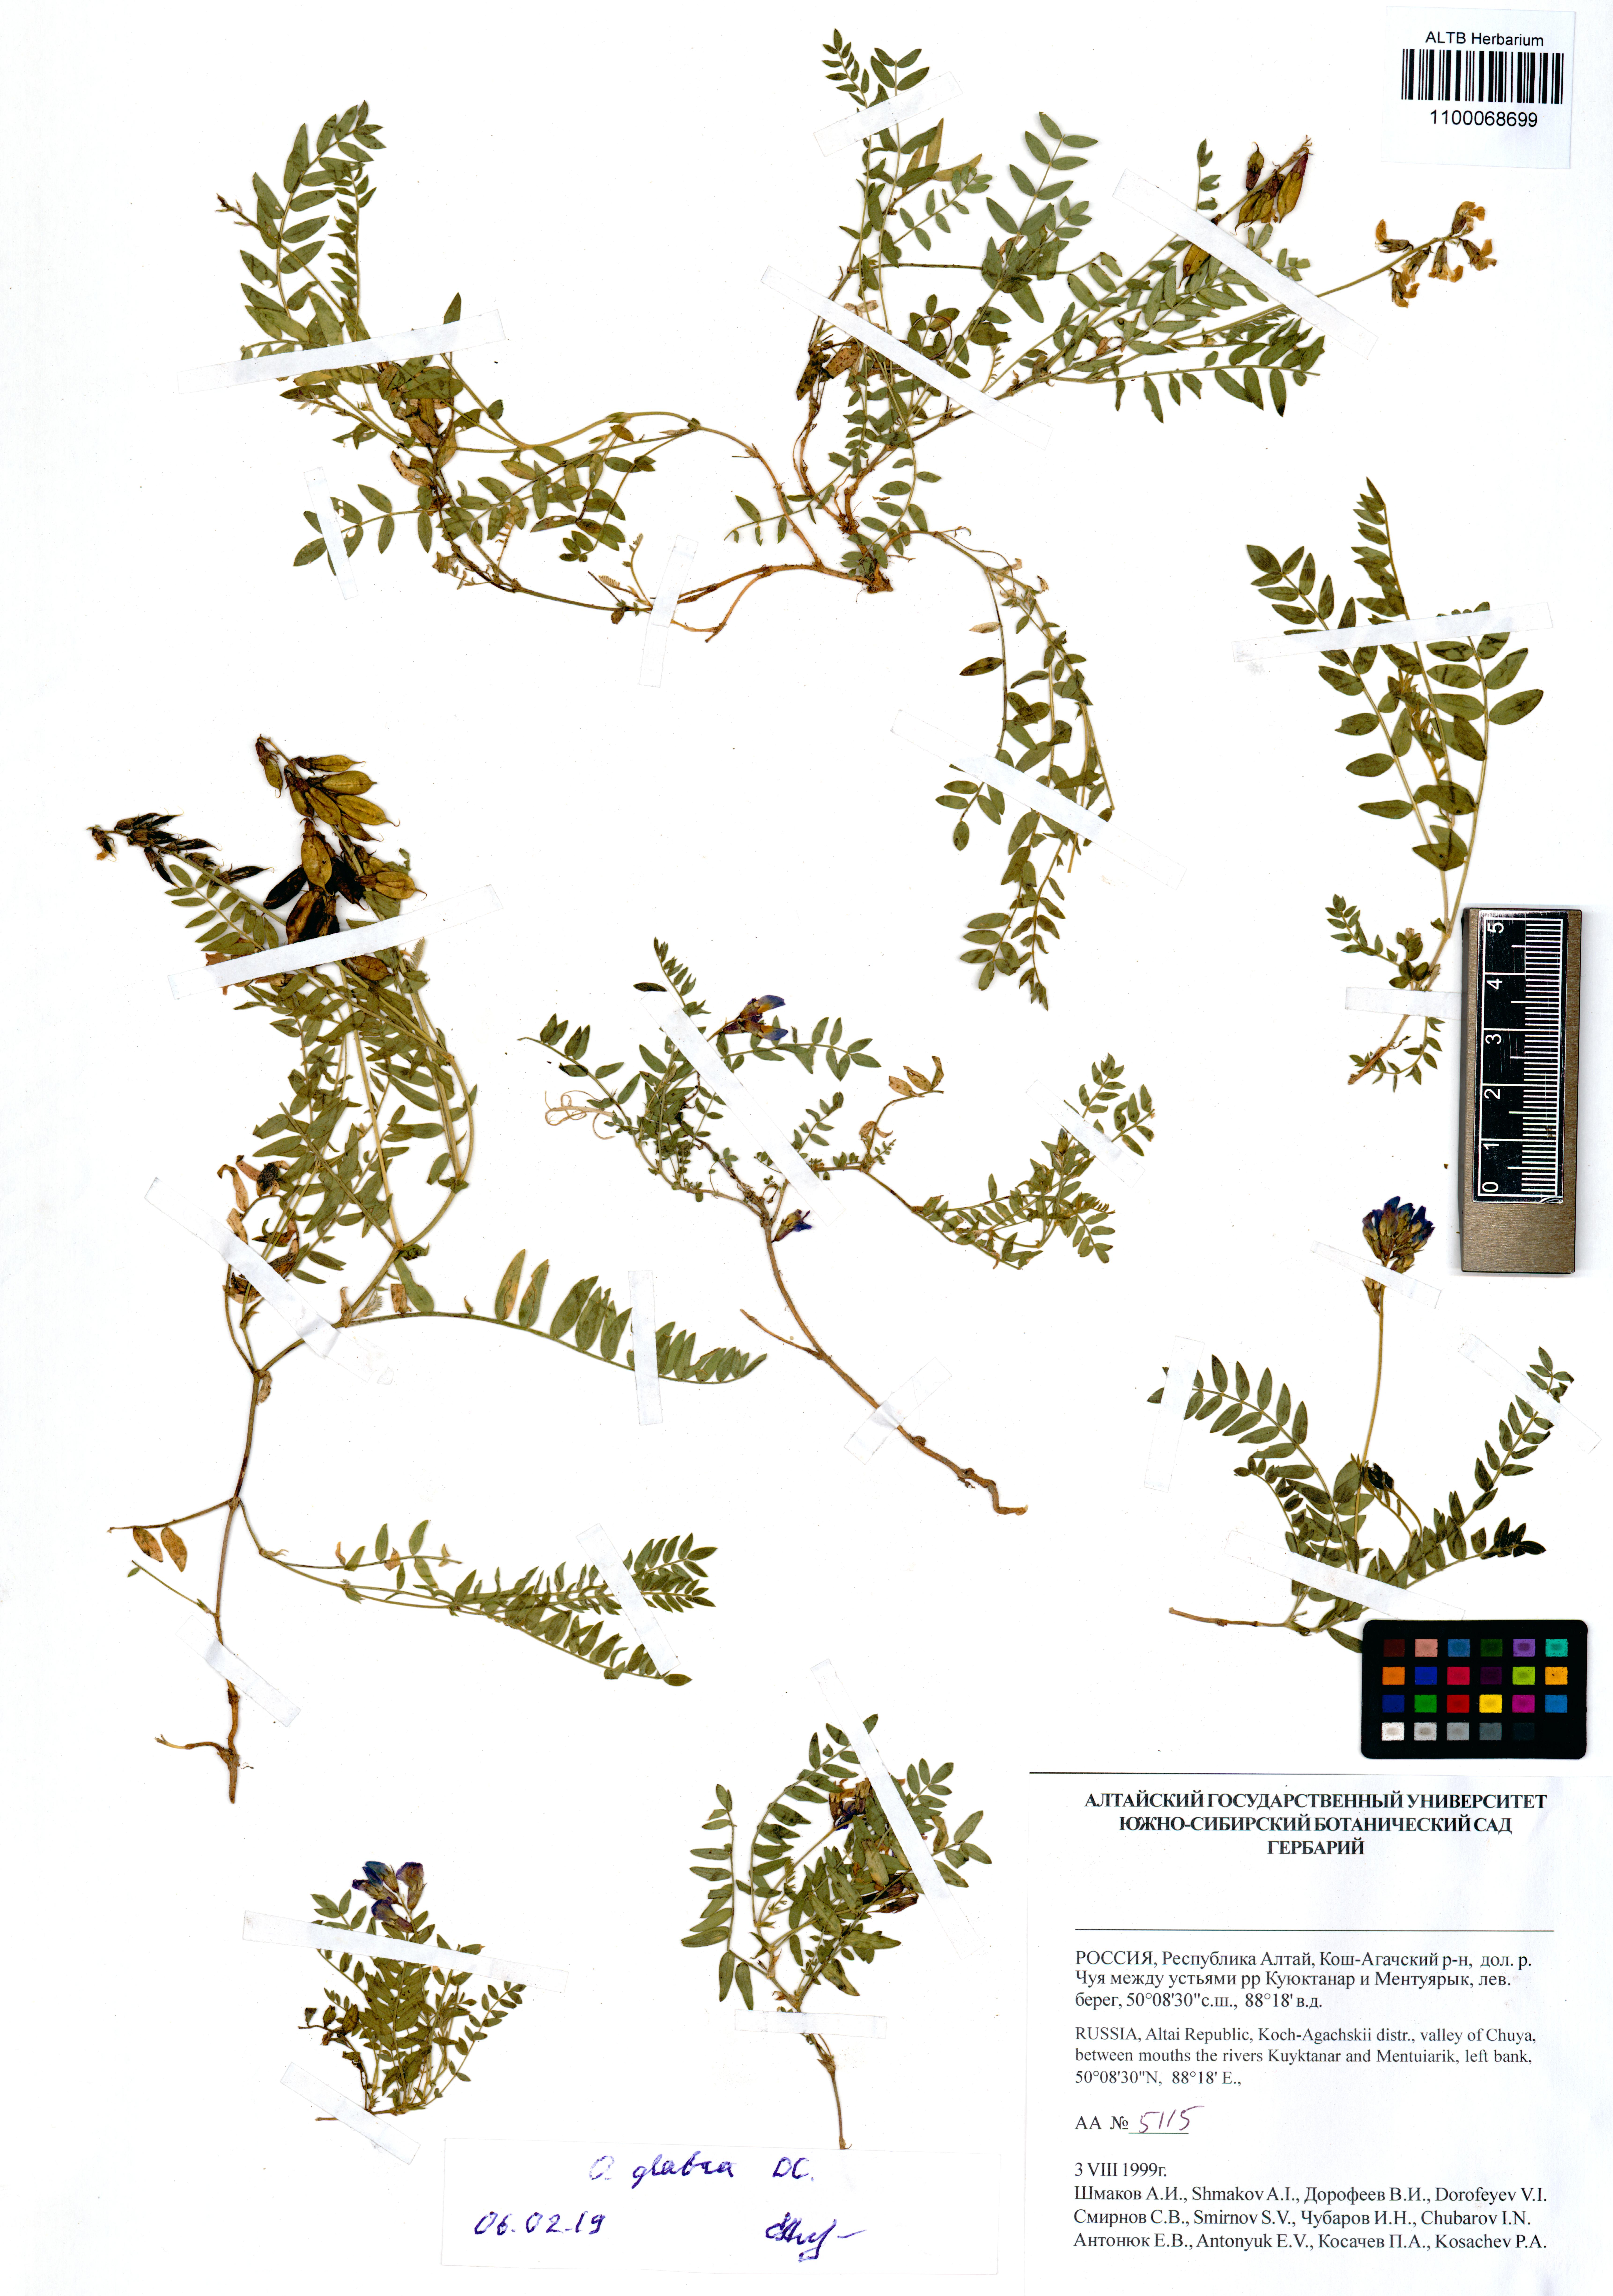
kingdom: Plantae
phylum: Tracheophyta
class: Magnoliopsida
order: Fabales
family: Fabaceae
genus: Oxytropis
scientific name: Oxytropis glabra
